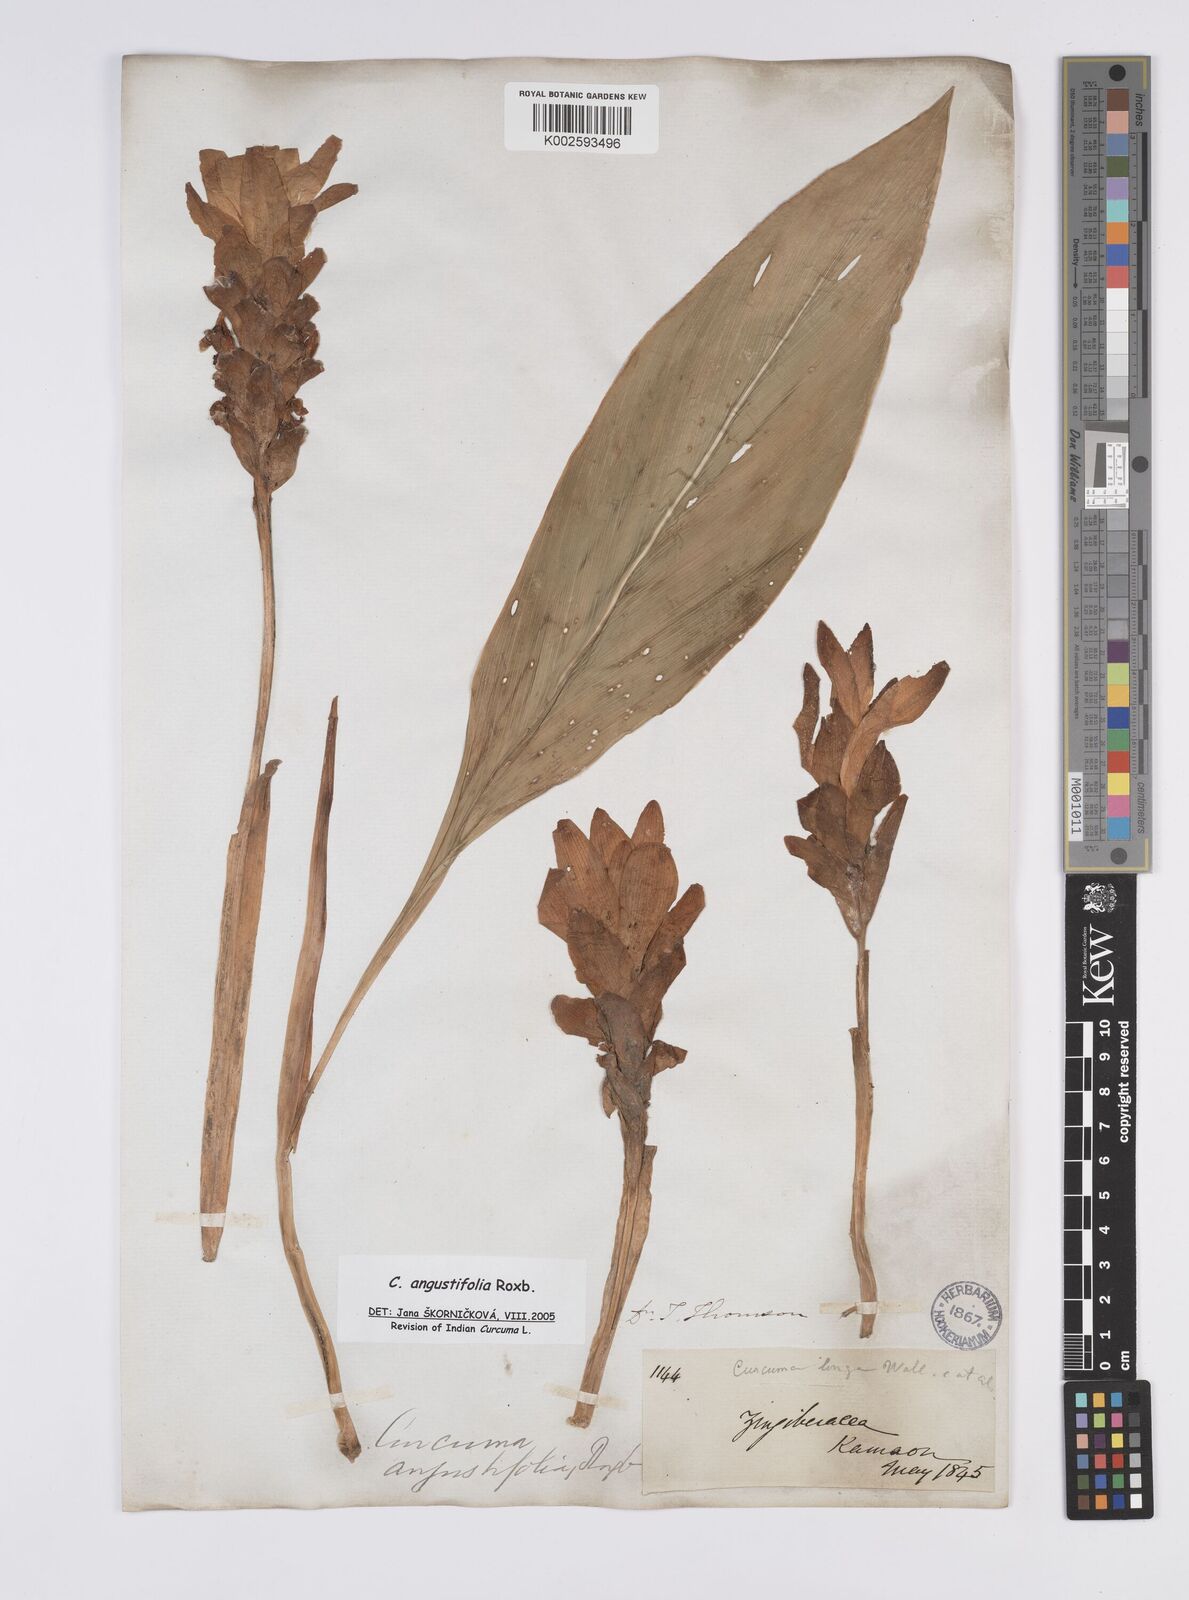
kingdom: Plantae
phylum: Tracheophyta
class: Liliopsida
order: Zingiberales
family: Zingiberaceae
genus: Curcuma
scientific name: Curcuma angustifolia
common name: East indian arrowroot
